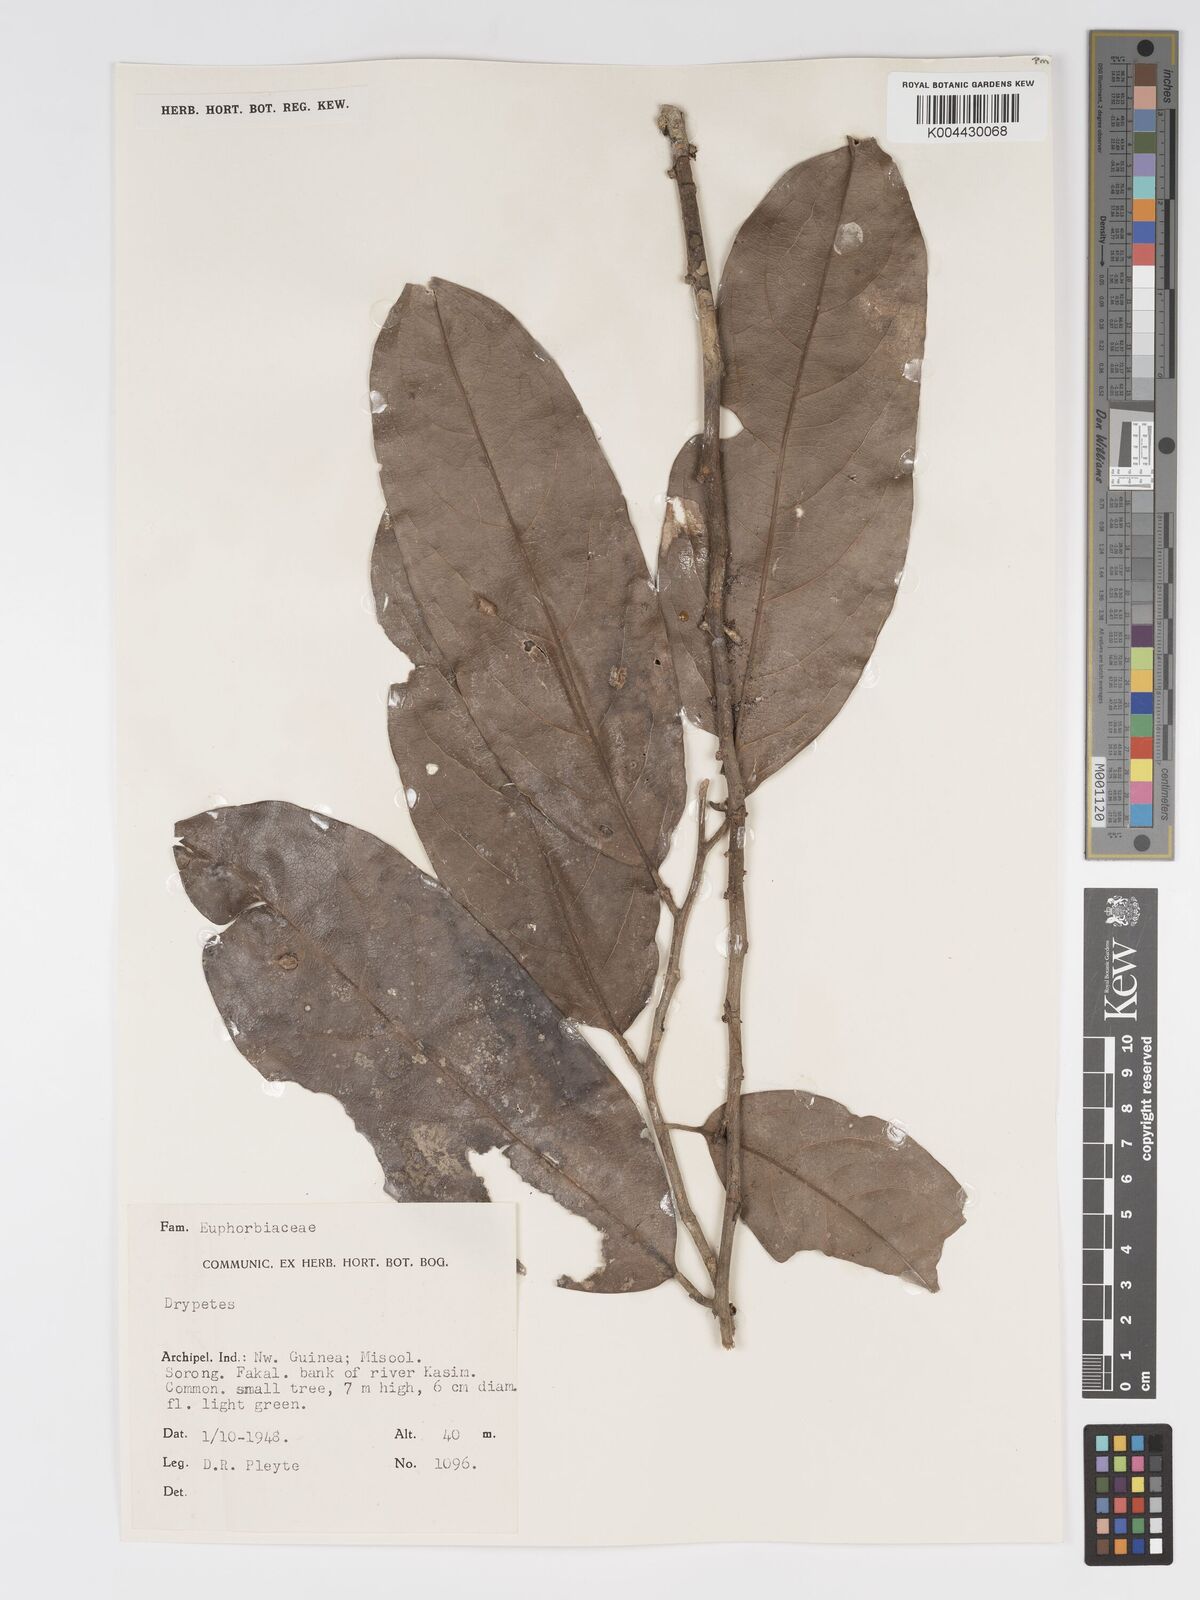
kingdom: Plantae
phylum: Tracheophyta
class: Magnoliopsida
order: Malpighiales
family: Putranjivaceae
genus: Drypetes
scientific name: Drypetes longifolia
